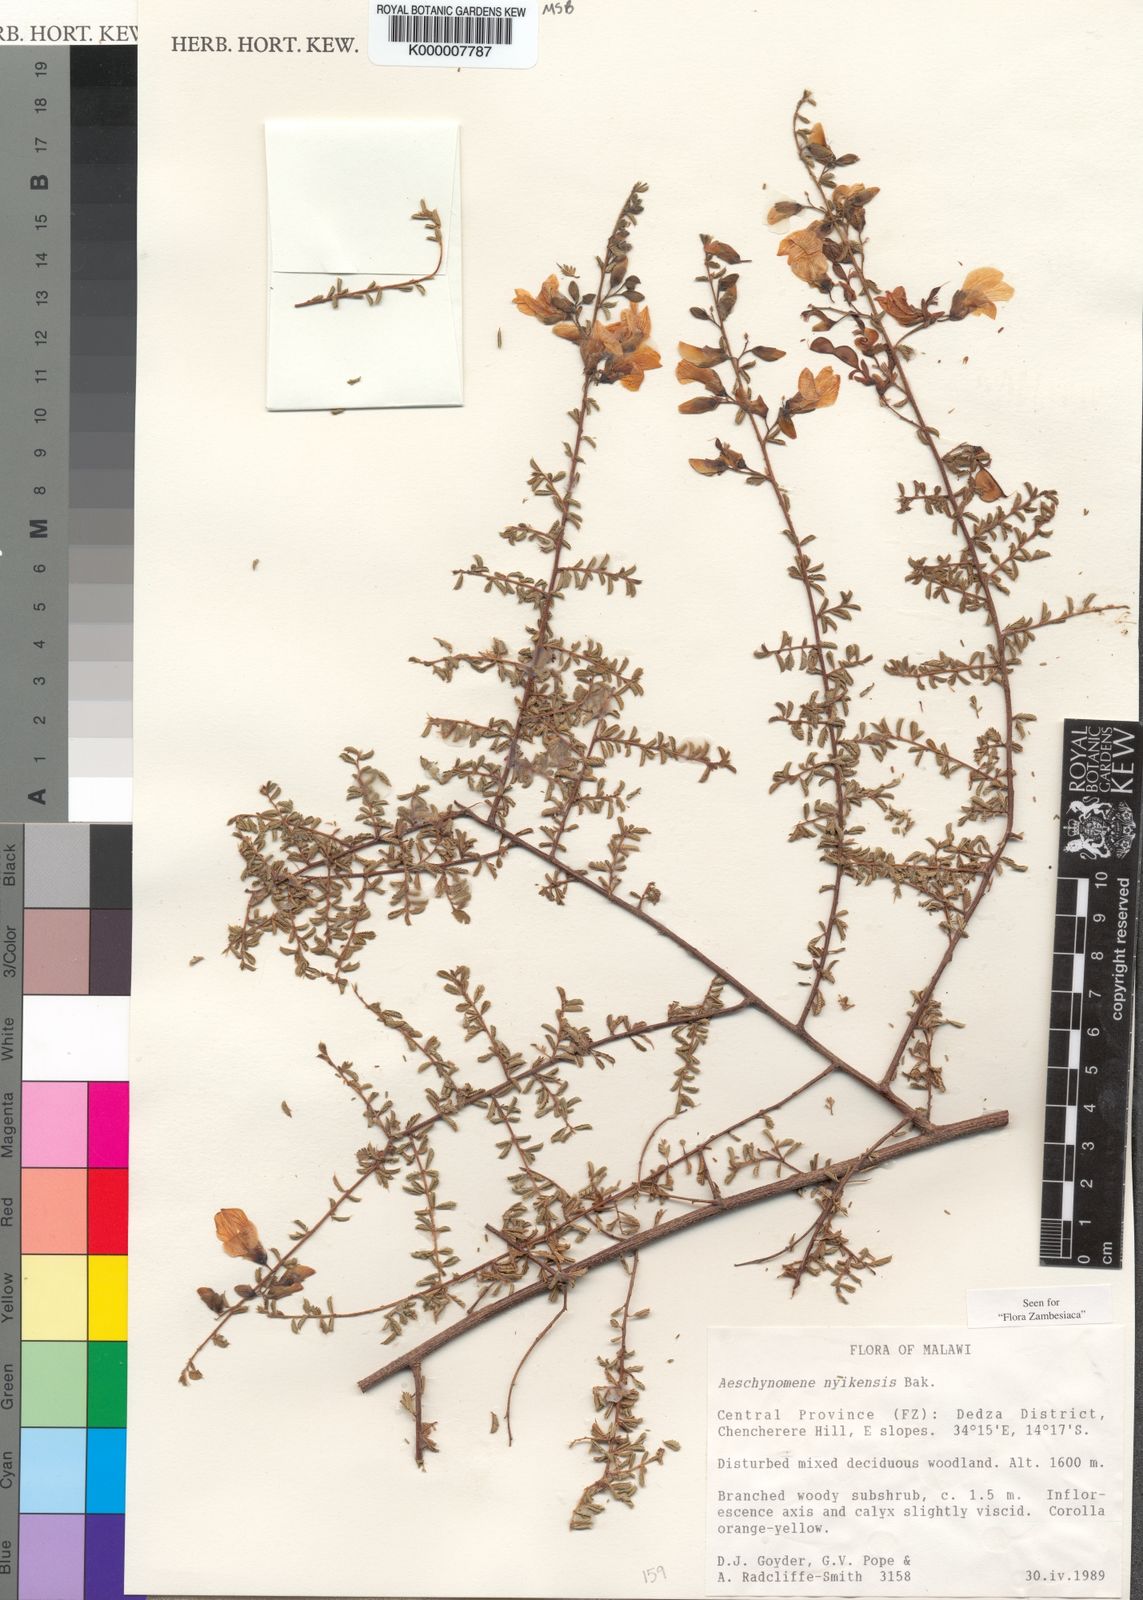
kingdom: Plantae
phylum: Tracheophyta
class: Magnoliopsida
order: Fabales
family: Fabaceae
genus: Aeschynomene
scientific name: Aeschynomene nyikensis
